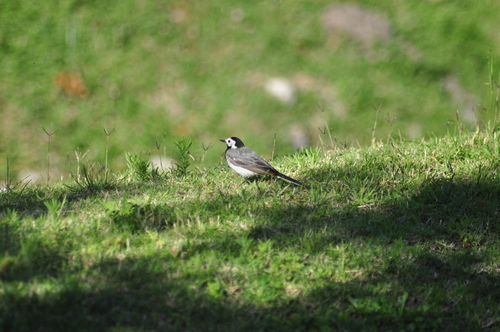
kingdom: Animalia
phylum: Chordata
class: Aves
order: Passeriformes
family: Motacillidae
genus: Motacilla
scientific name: Motacilla alba
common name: White wagtail
